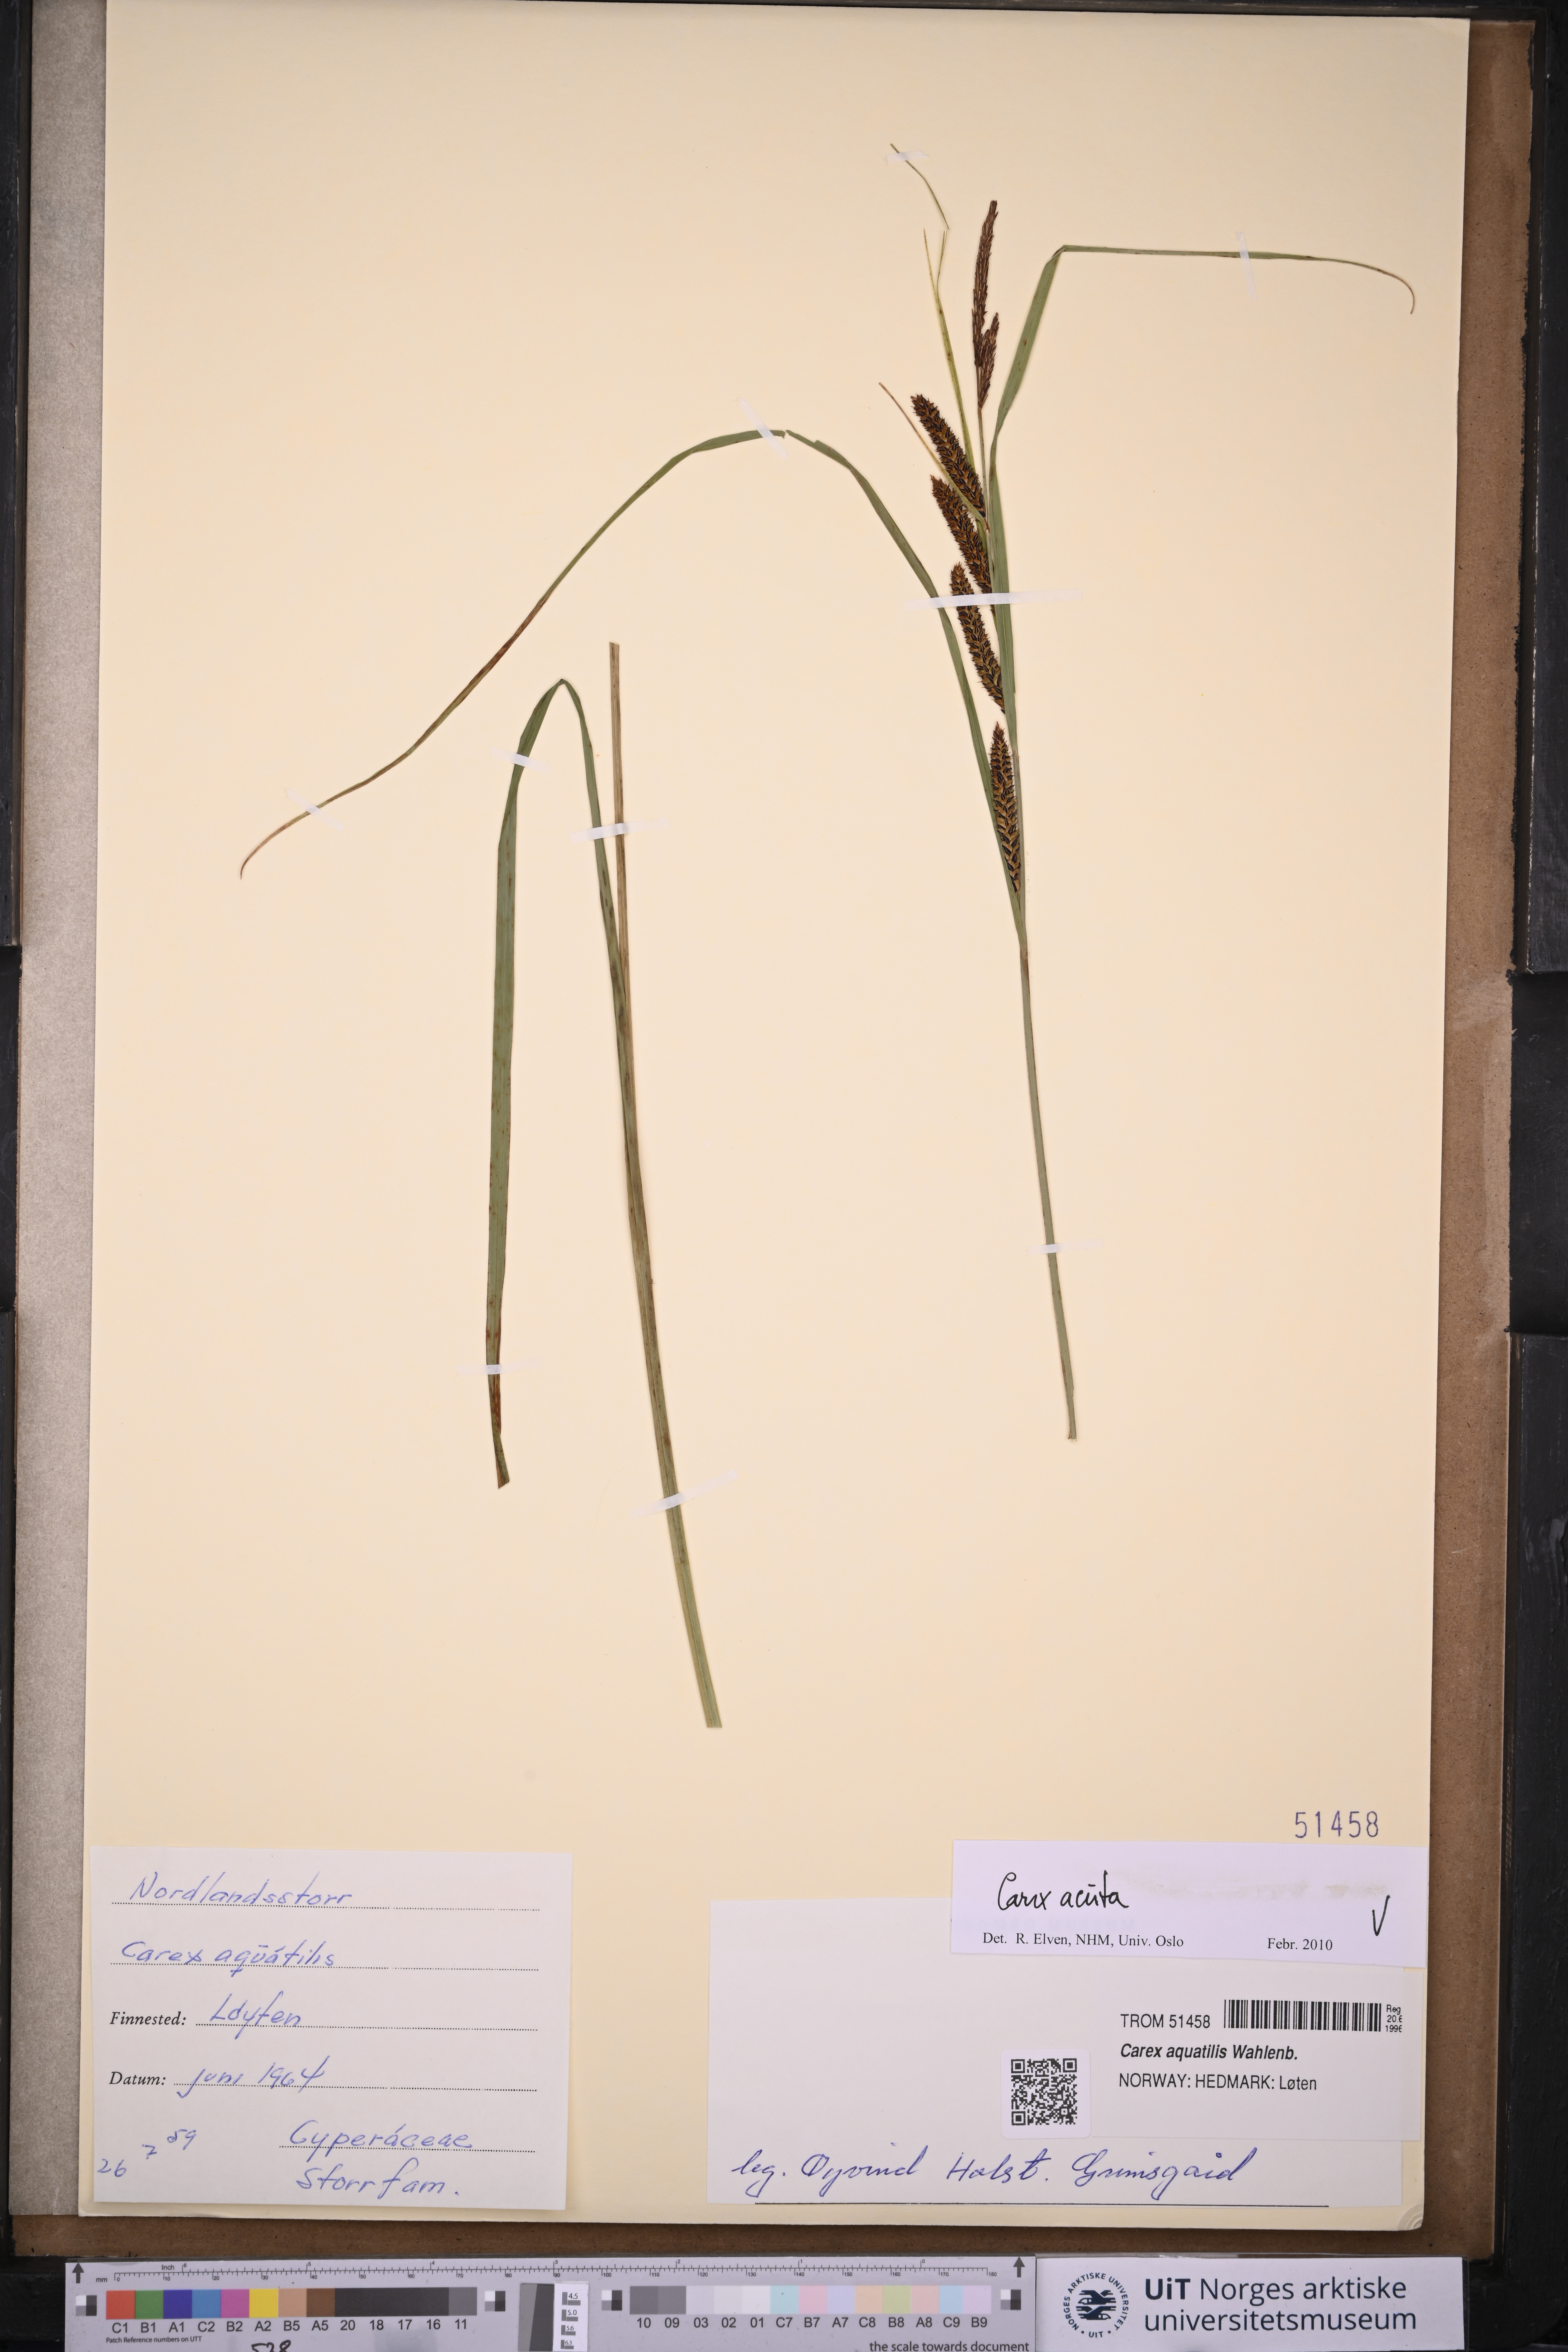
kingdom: Plantae
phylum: Tracheophyta
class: Liliopsida
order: Poales
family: Cyperaceae
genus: Carex
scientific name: Carex acuta
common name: Slender tufted-sedge
